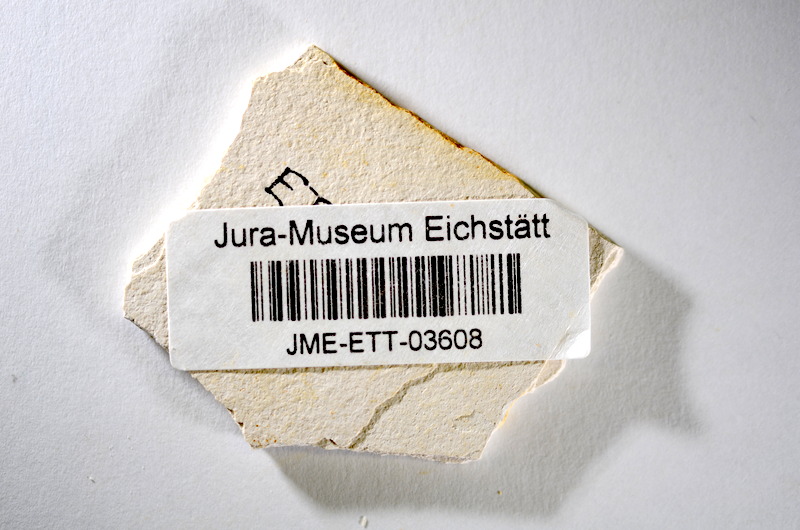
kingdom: Animalia
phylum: Chordata
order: Salmoniformes
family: Orthogonikleithridae
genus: Orthogonikleithrus
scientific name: Orthogonikleithrus hoelli
